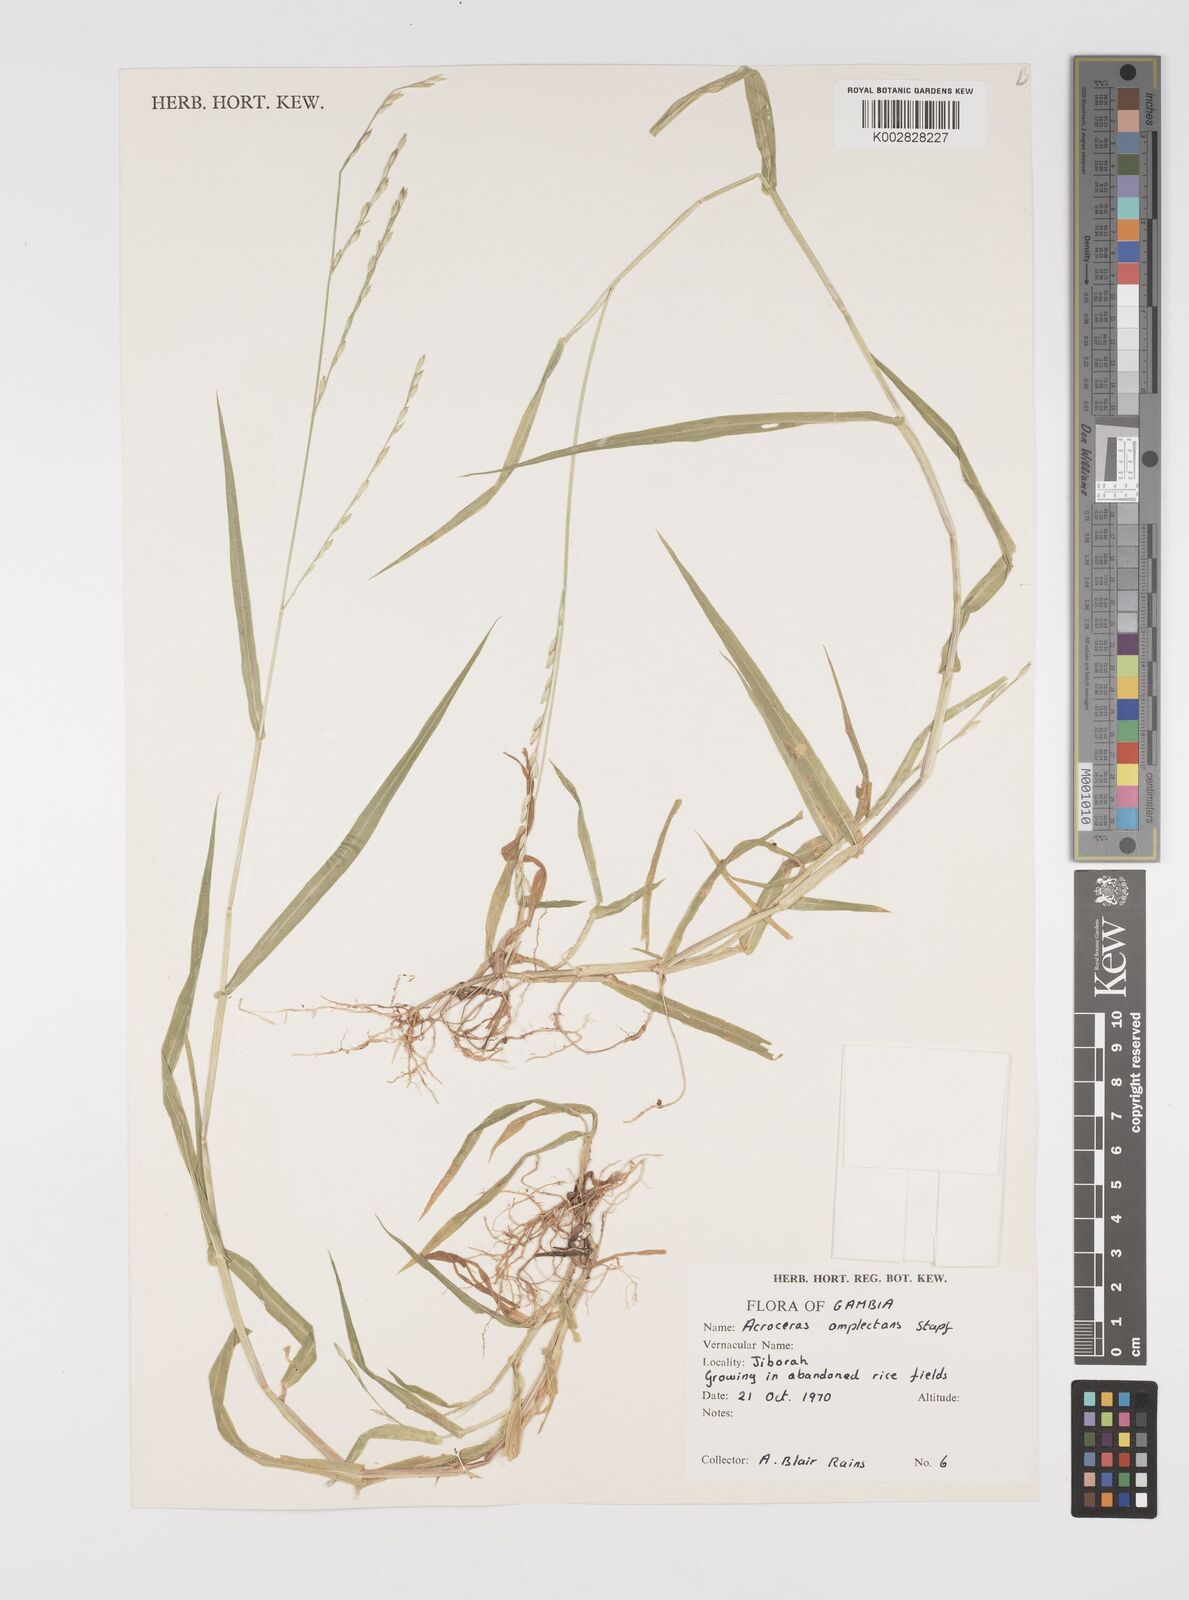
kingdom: Plantae
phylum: Tracheophyta
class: Liliopsida
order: Poales
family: Poaceae
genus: Acroceras
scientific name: Acroceras amplectens
